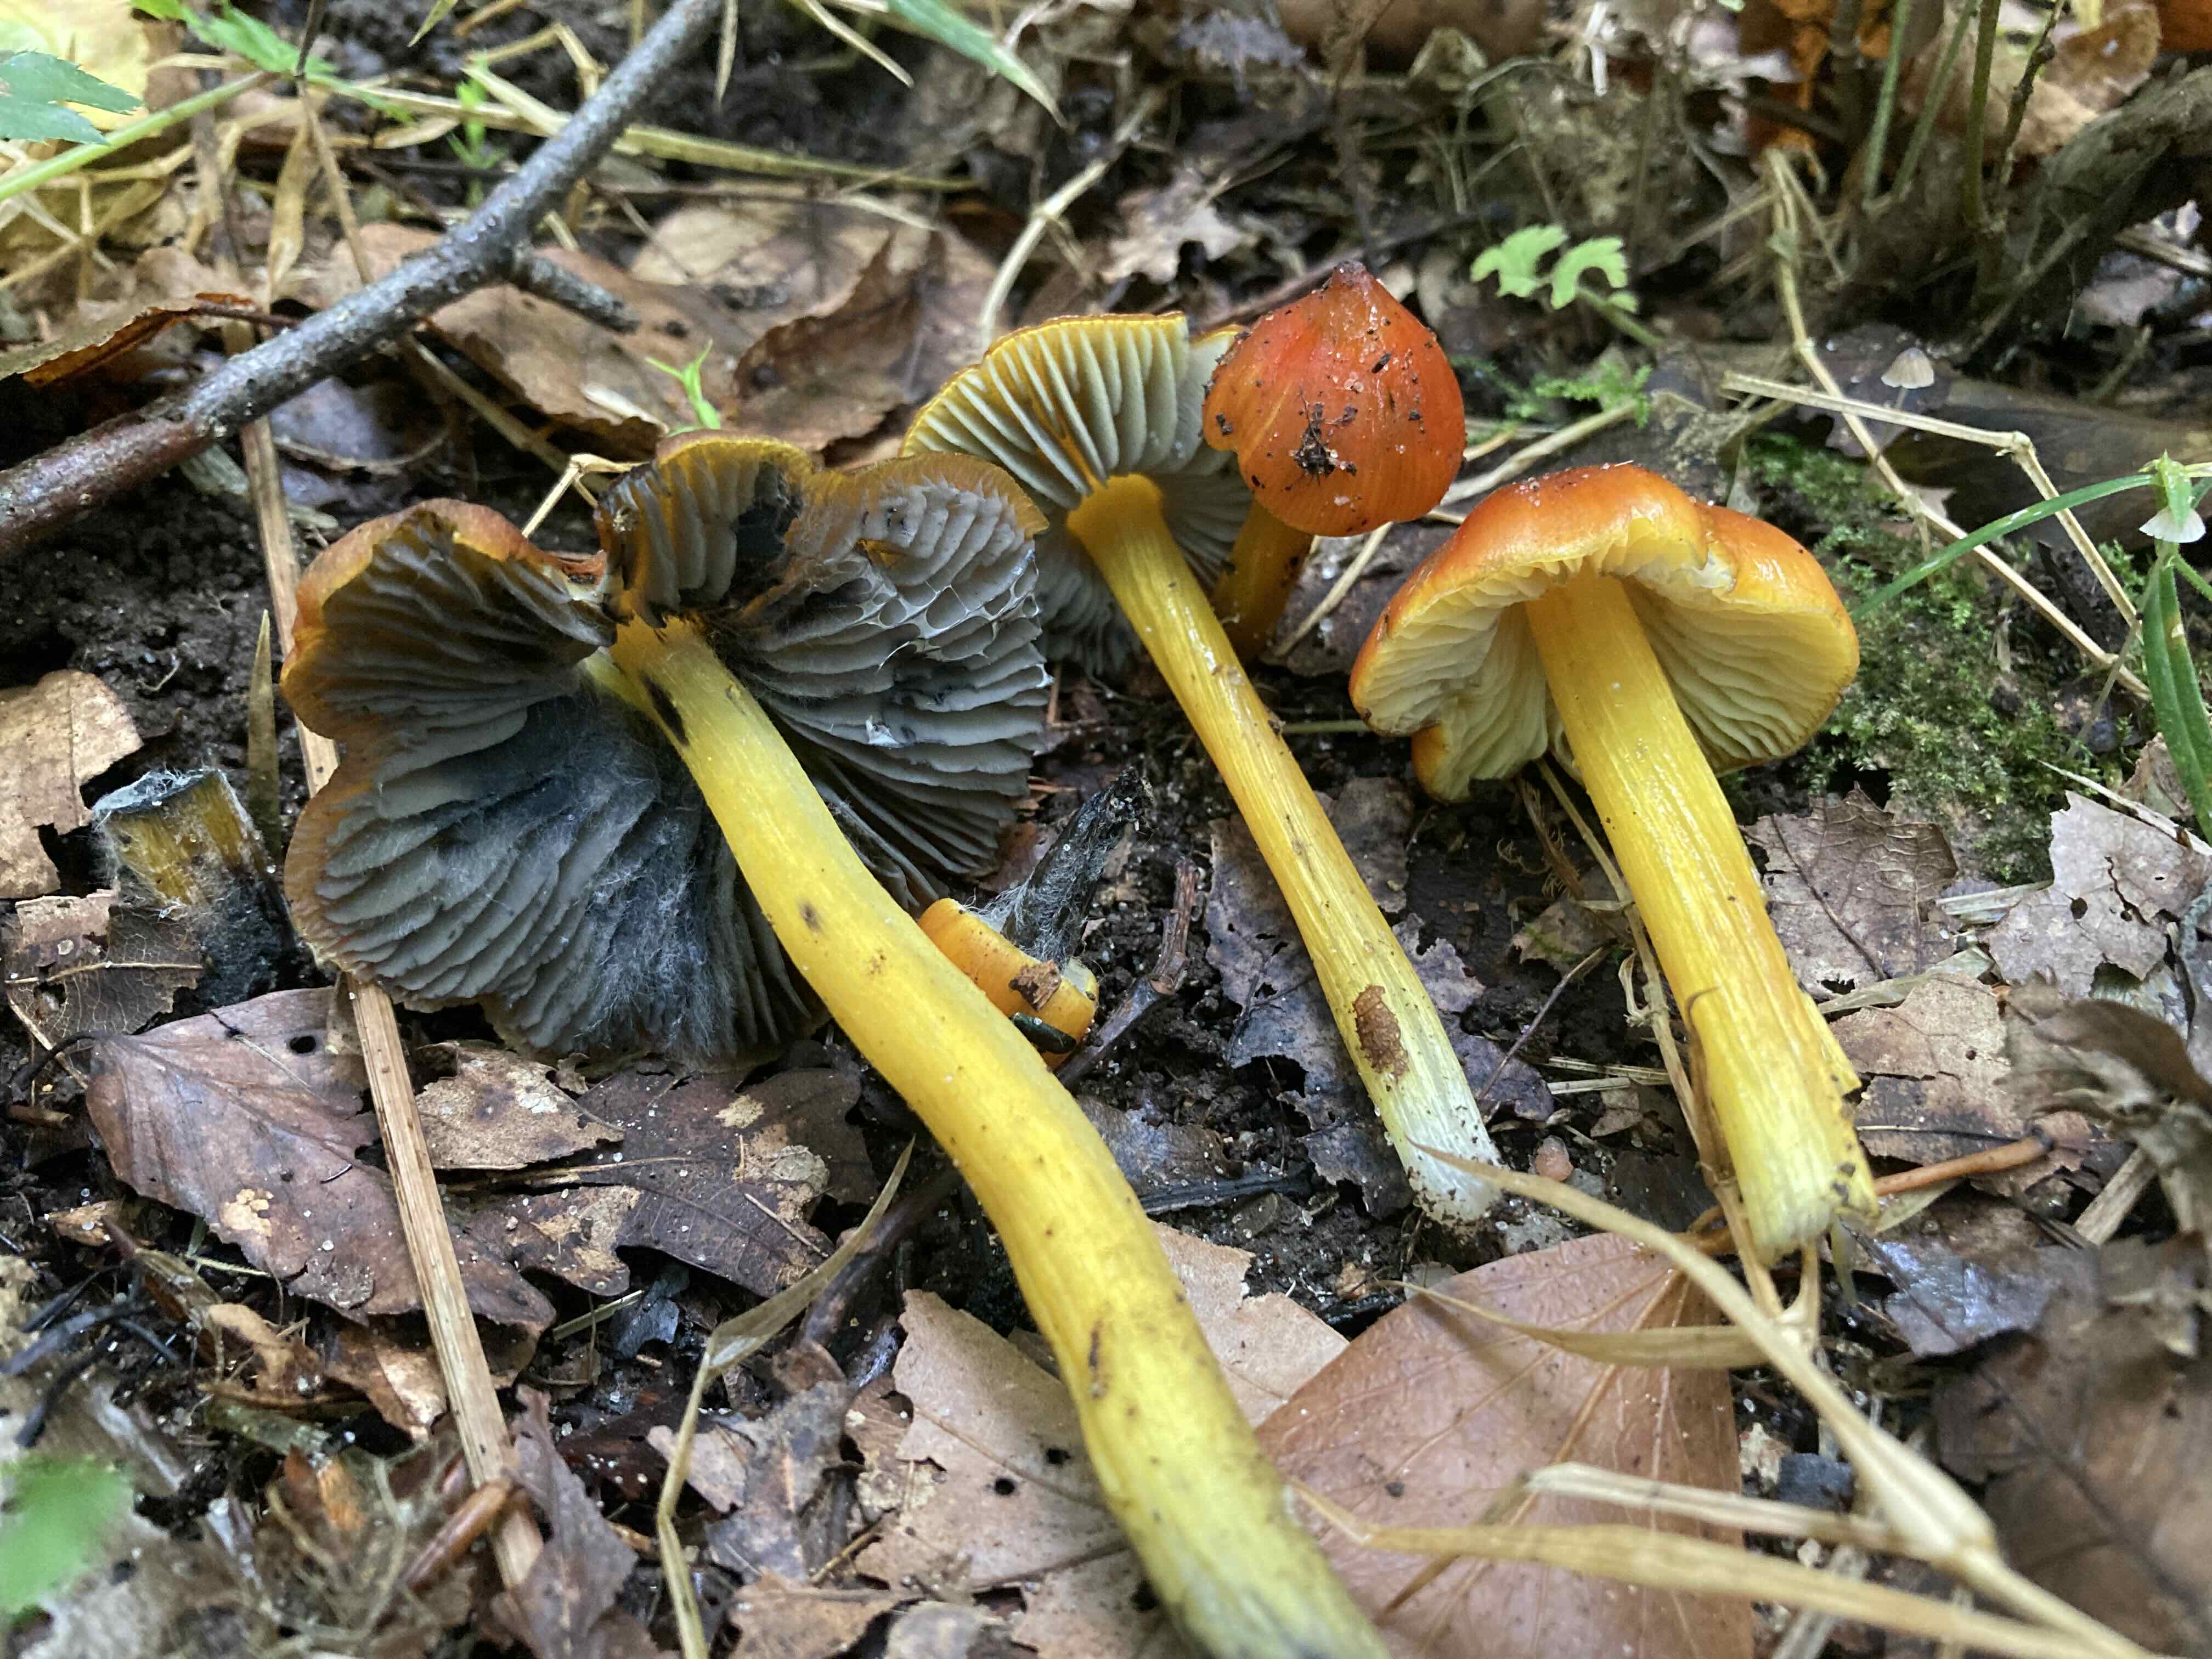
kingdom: Fungi
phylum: Basidiomycota
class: Agaricomycetes
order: Agaricales
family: Hygrophoraceae
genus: Hygrocybe
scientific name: Hygrocybe conica
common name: kegle-vokshat
